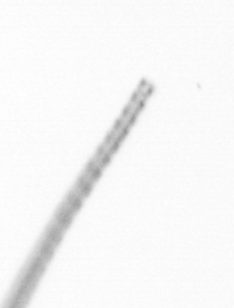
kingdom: Chromista
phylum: Ochrophyta
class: Bacillariophyceae
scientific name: Bacillariophyceae
